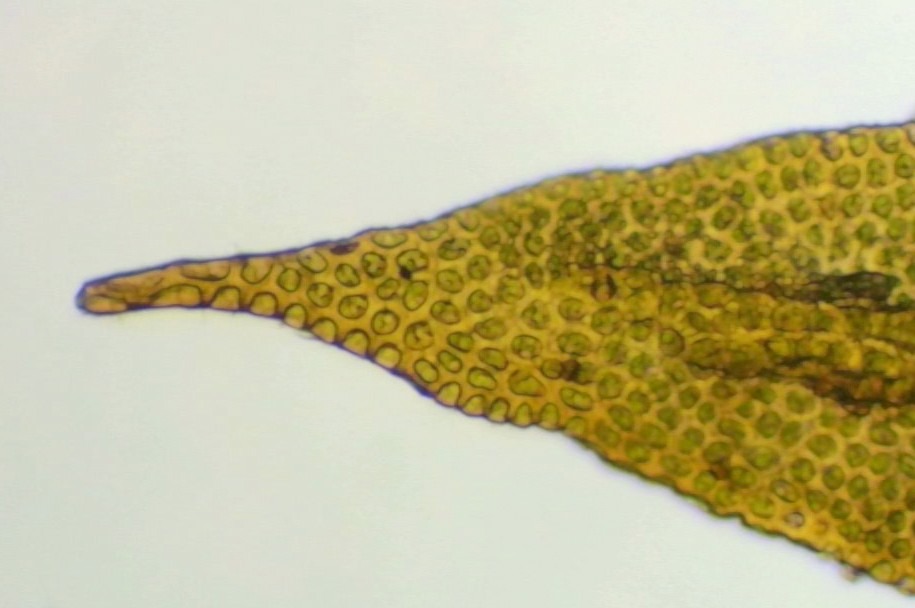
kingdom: Plantae
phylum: Bryophyta
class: Bryopsida
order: Orthotrichales
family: Orthotrichaceae
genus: Zygodon
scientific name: Zygodon rupestris
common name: Almindelig køllemos
